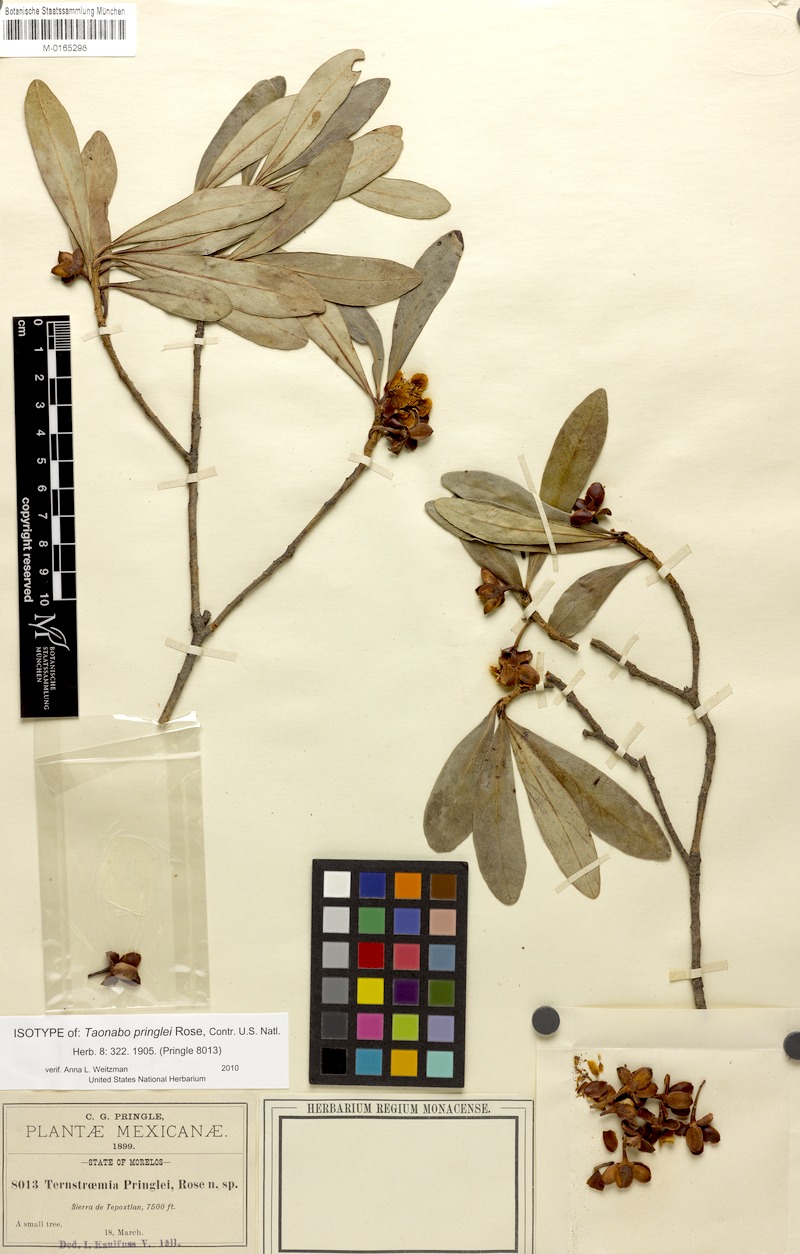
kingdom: Plantae
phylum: Tracheophyta
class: Magnoliopsida
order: Ericales
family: Pentaphylacaceae
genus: Ternstroemia
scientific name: Ternstroemia lineata
